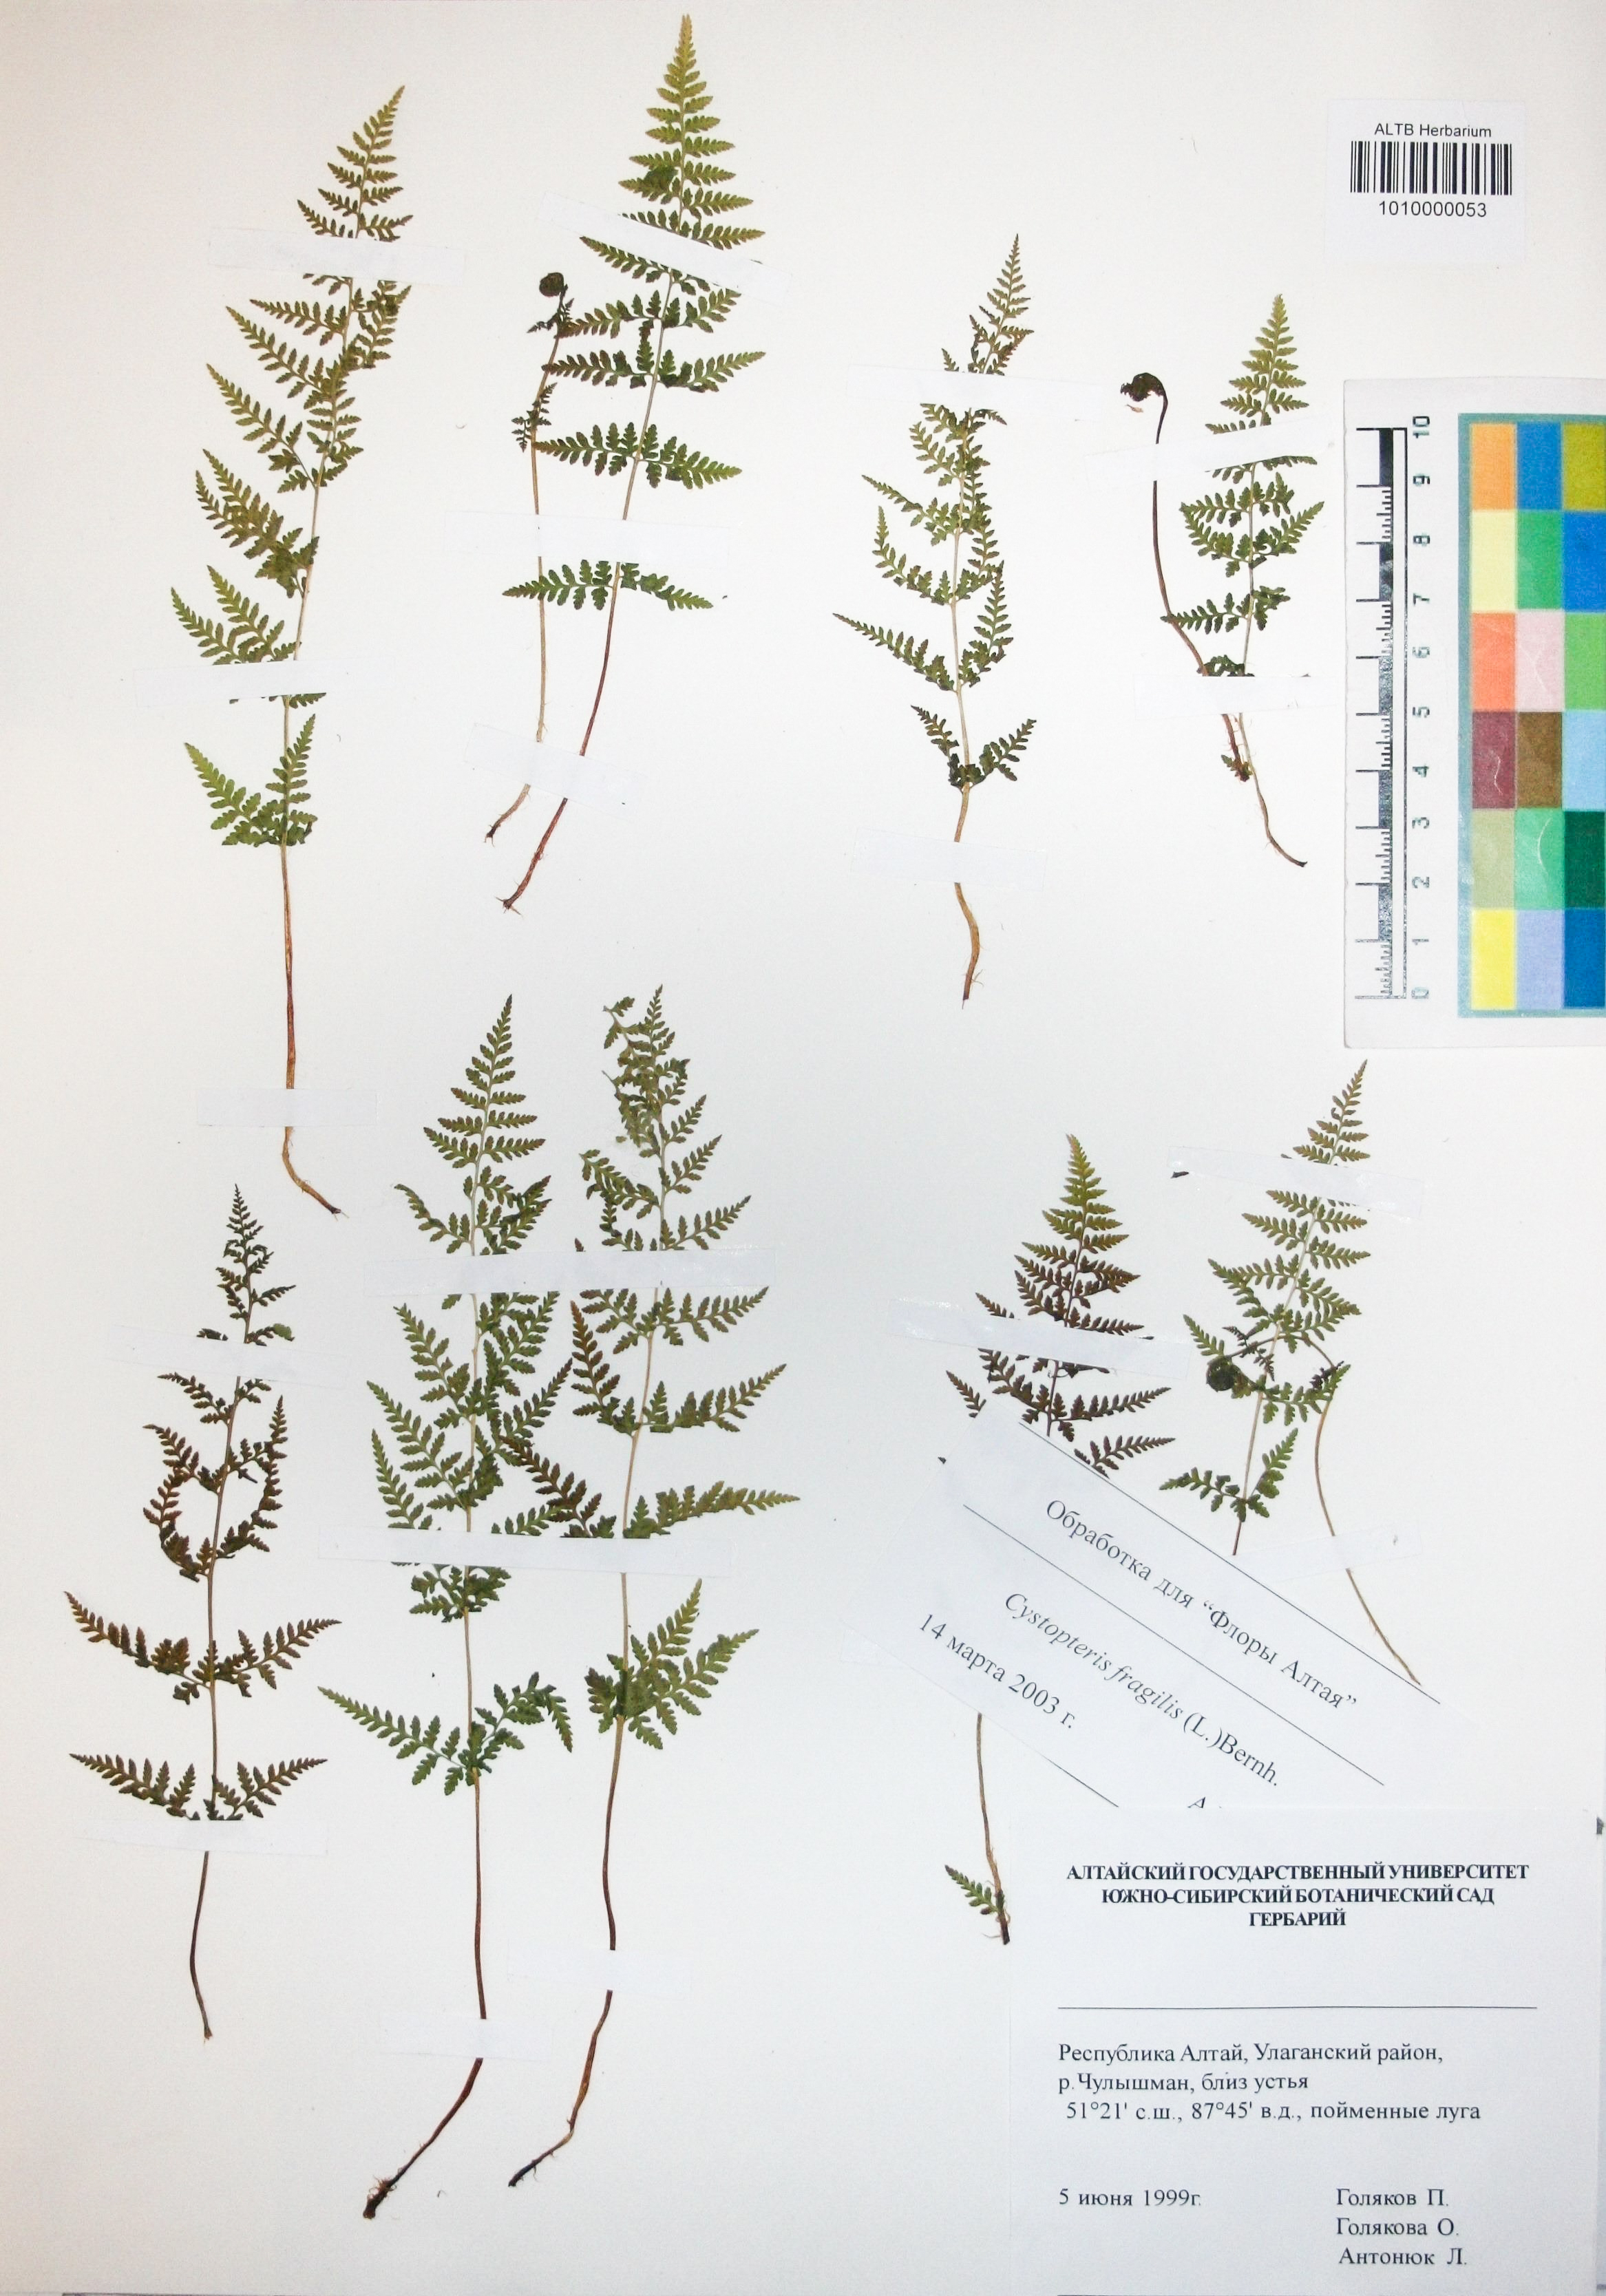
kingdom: Plantae
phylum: Tracheophyta
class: Polypodiopsida
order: Polypodiales
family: Cystopteridaceae
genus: Cystopteris
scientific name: Cystopteris fragilis
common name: Brittle bladder fern
